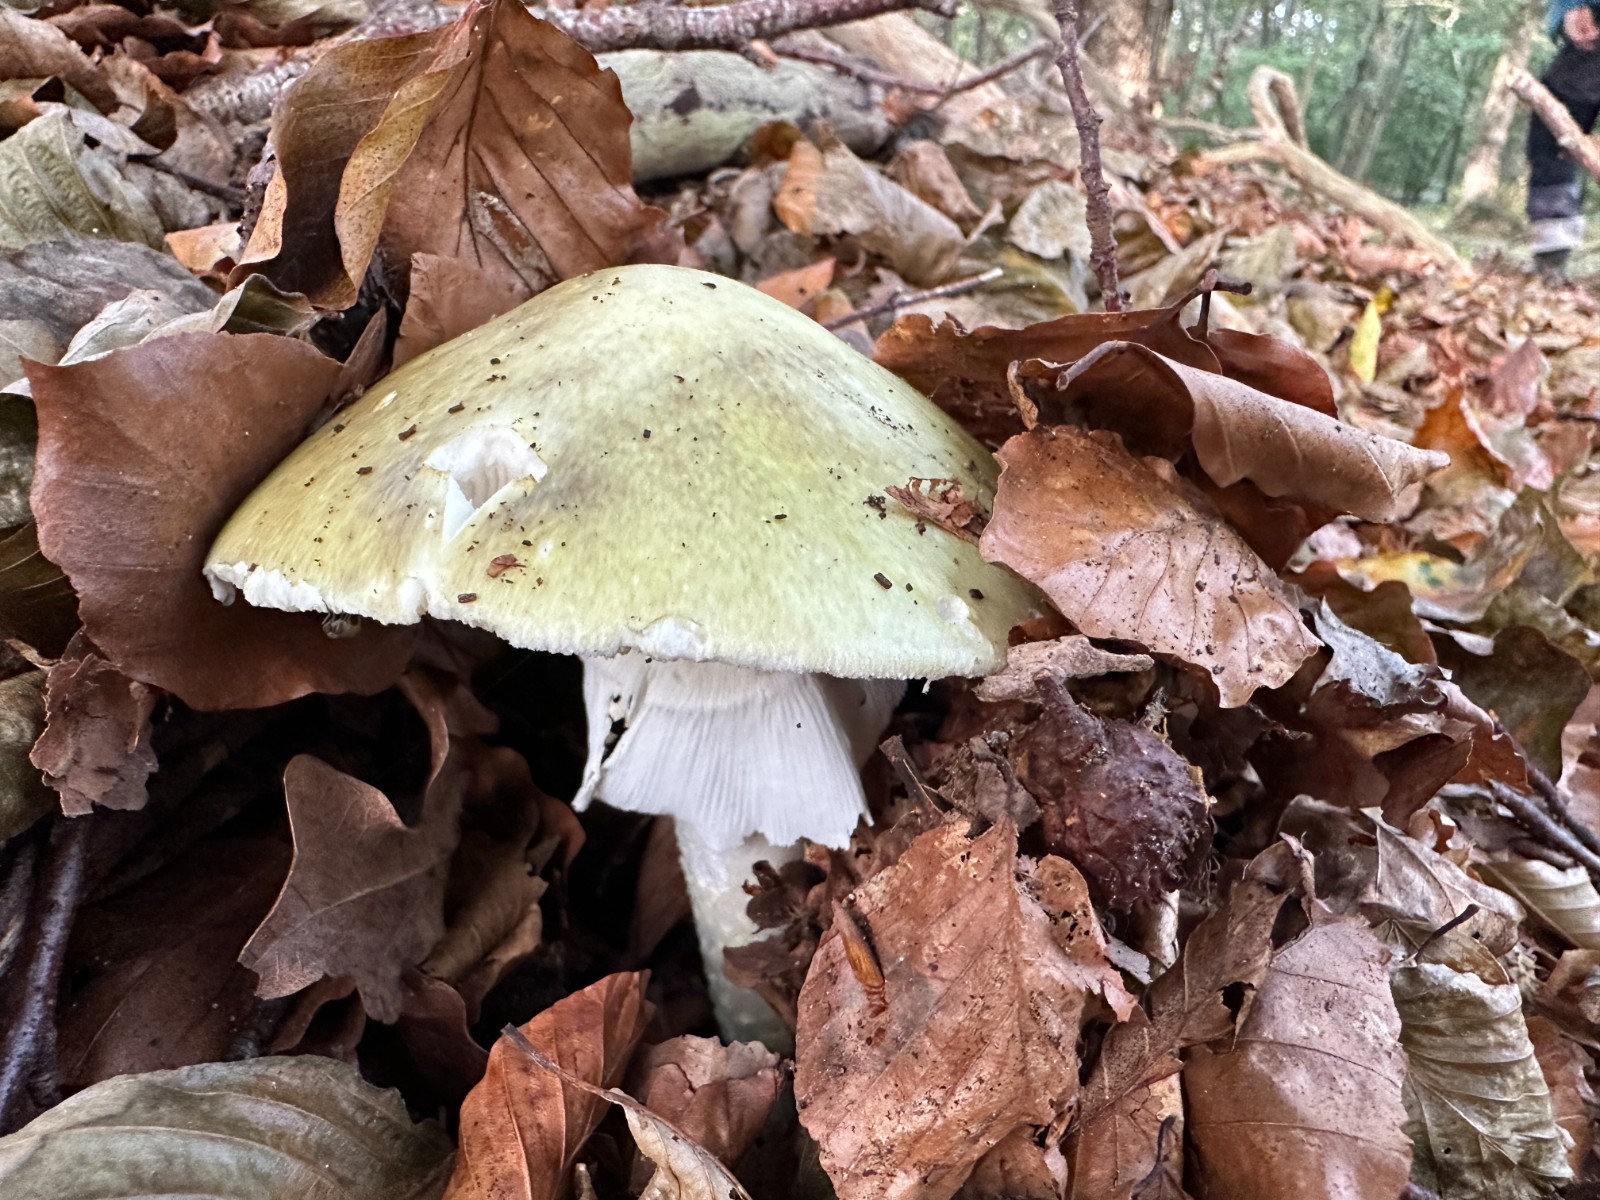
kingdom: Fungi
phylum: Basidiomycota
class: Agaricomycetes
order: Agaricales
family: Amanitaceae
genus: Amanita
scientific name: Amanita phalloides
